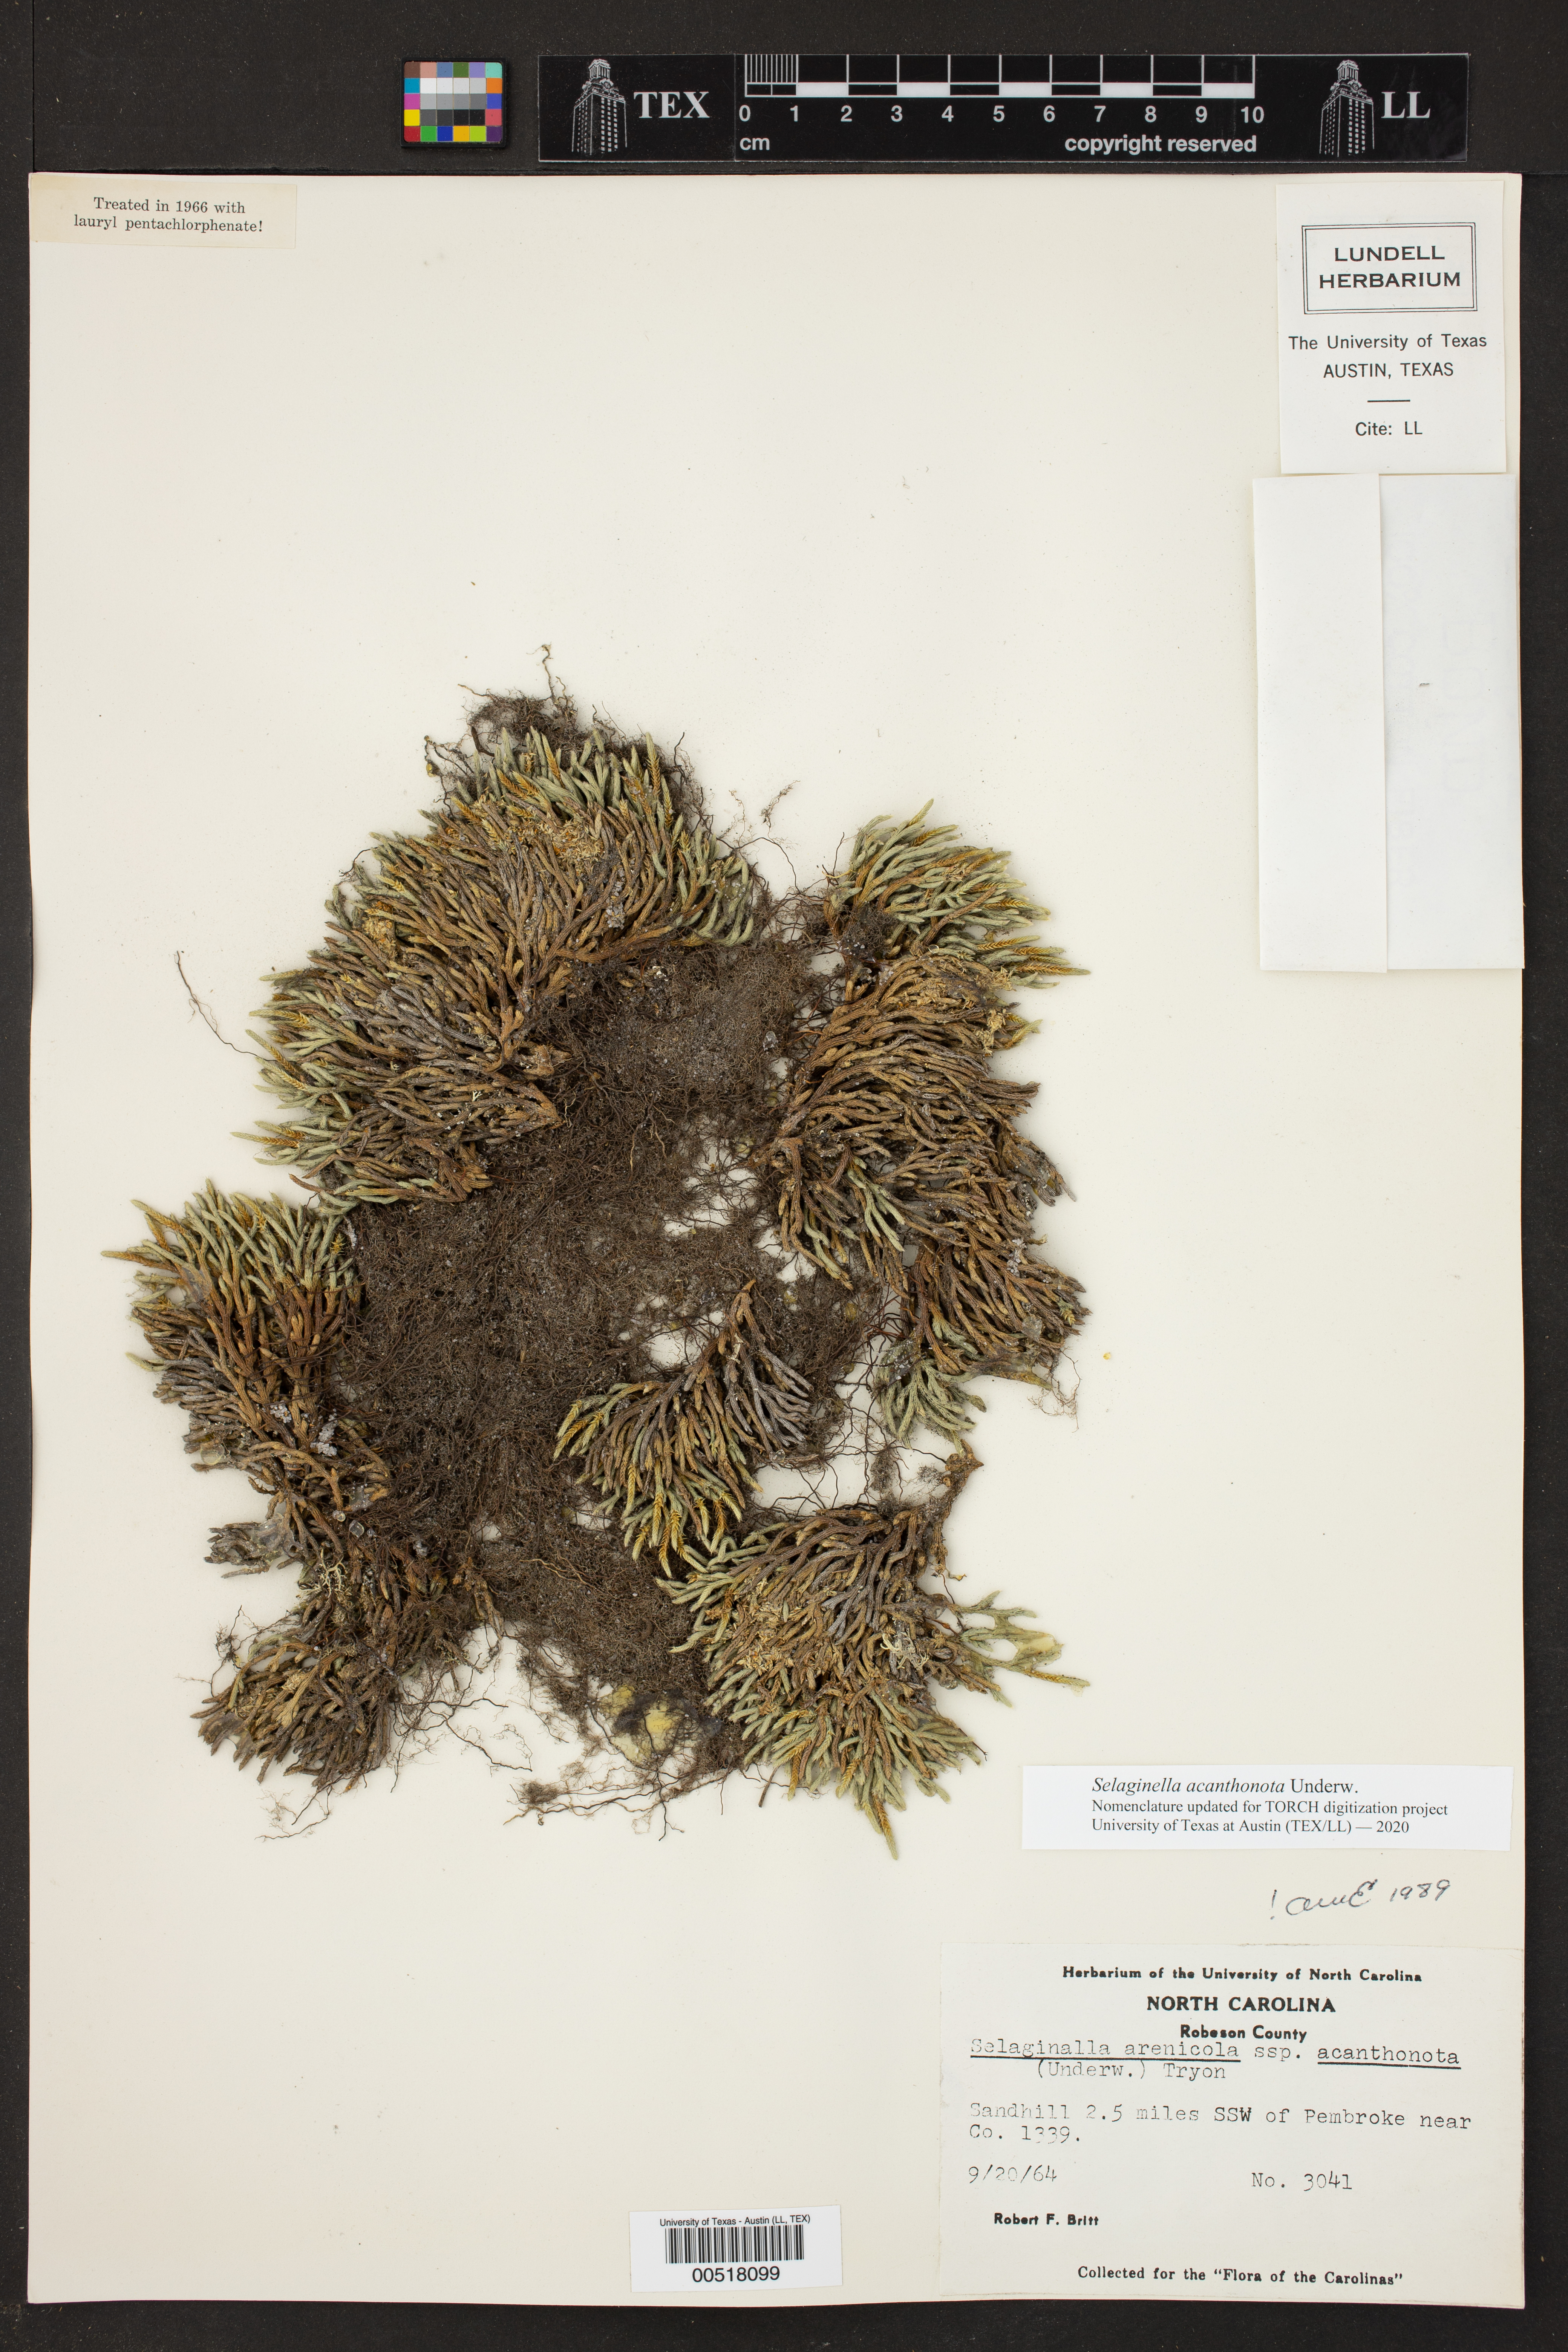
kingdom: Plantae
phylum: Tracheophyta
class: Lycopodiopsida
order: Selaginellales
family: Selaginellaceae
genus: Selaginella
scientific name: Selaginella acanthonota
